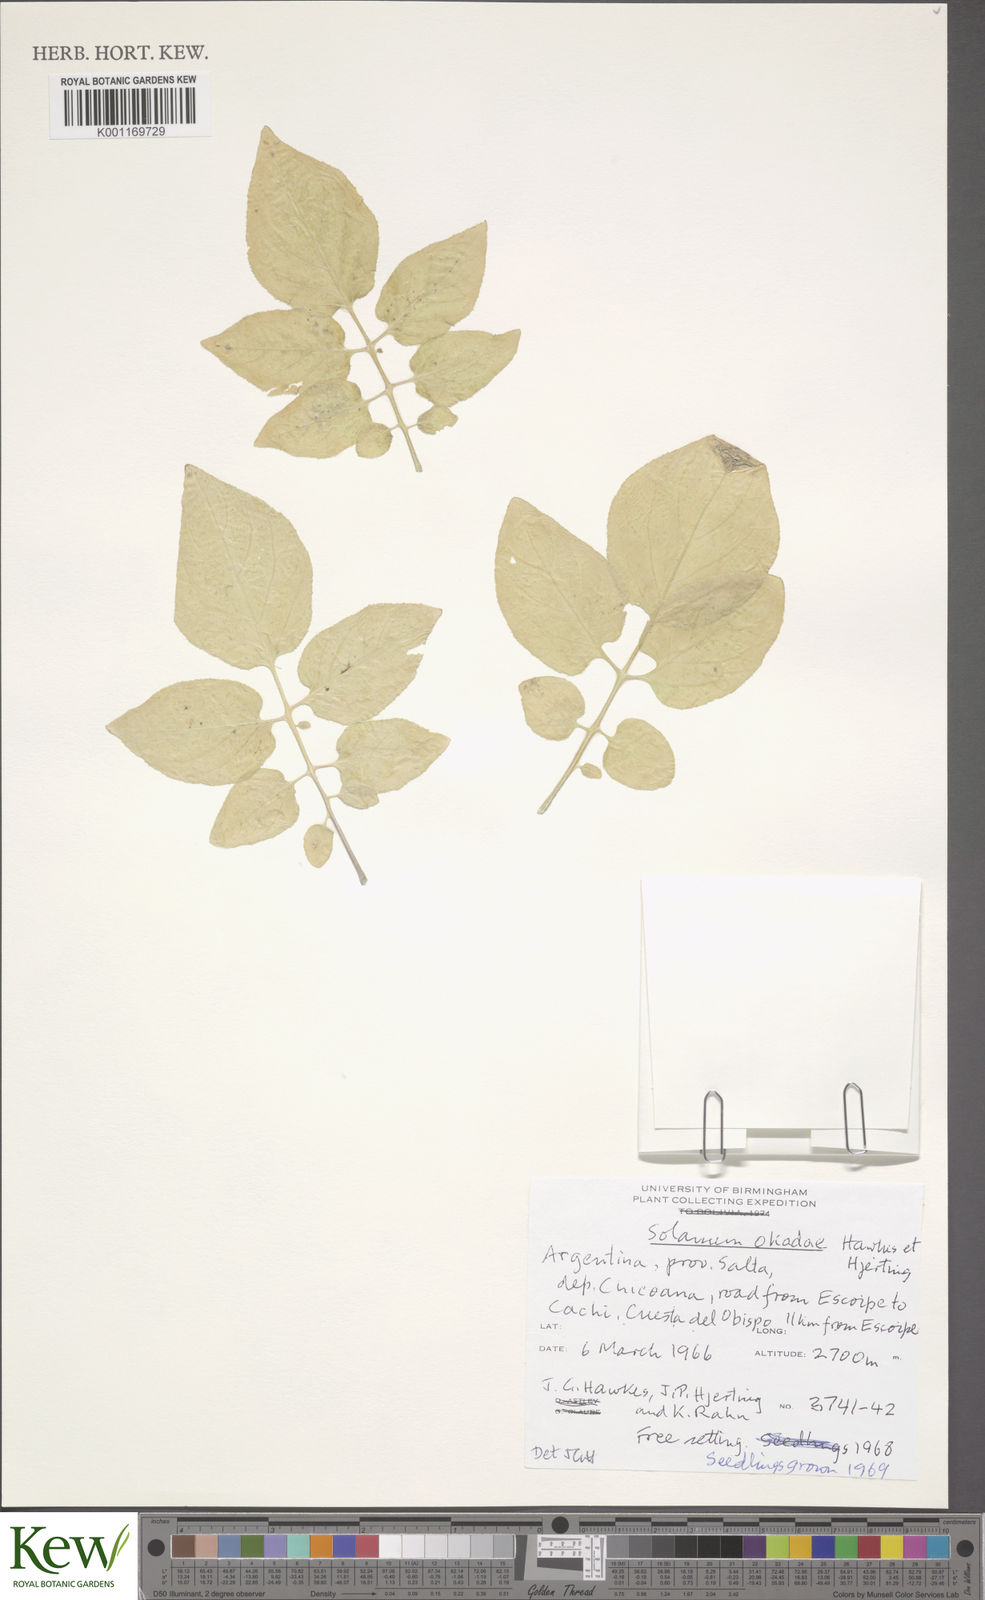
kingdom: Plantae
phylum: Tracheophyta
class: Magnoliopsida
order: Solanales
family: Solanaceae
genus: Solanum
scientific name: Solanum okadae
